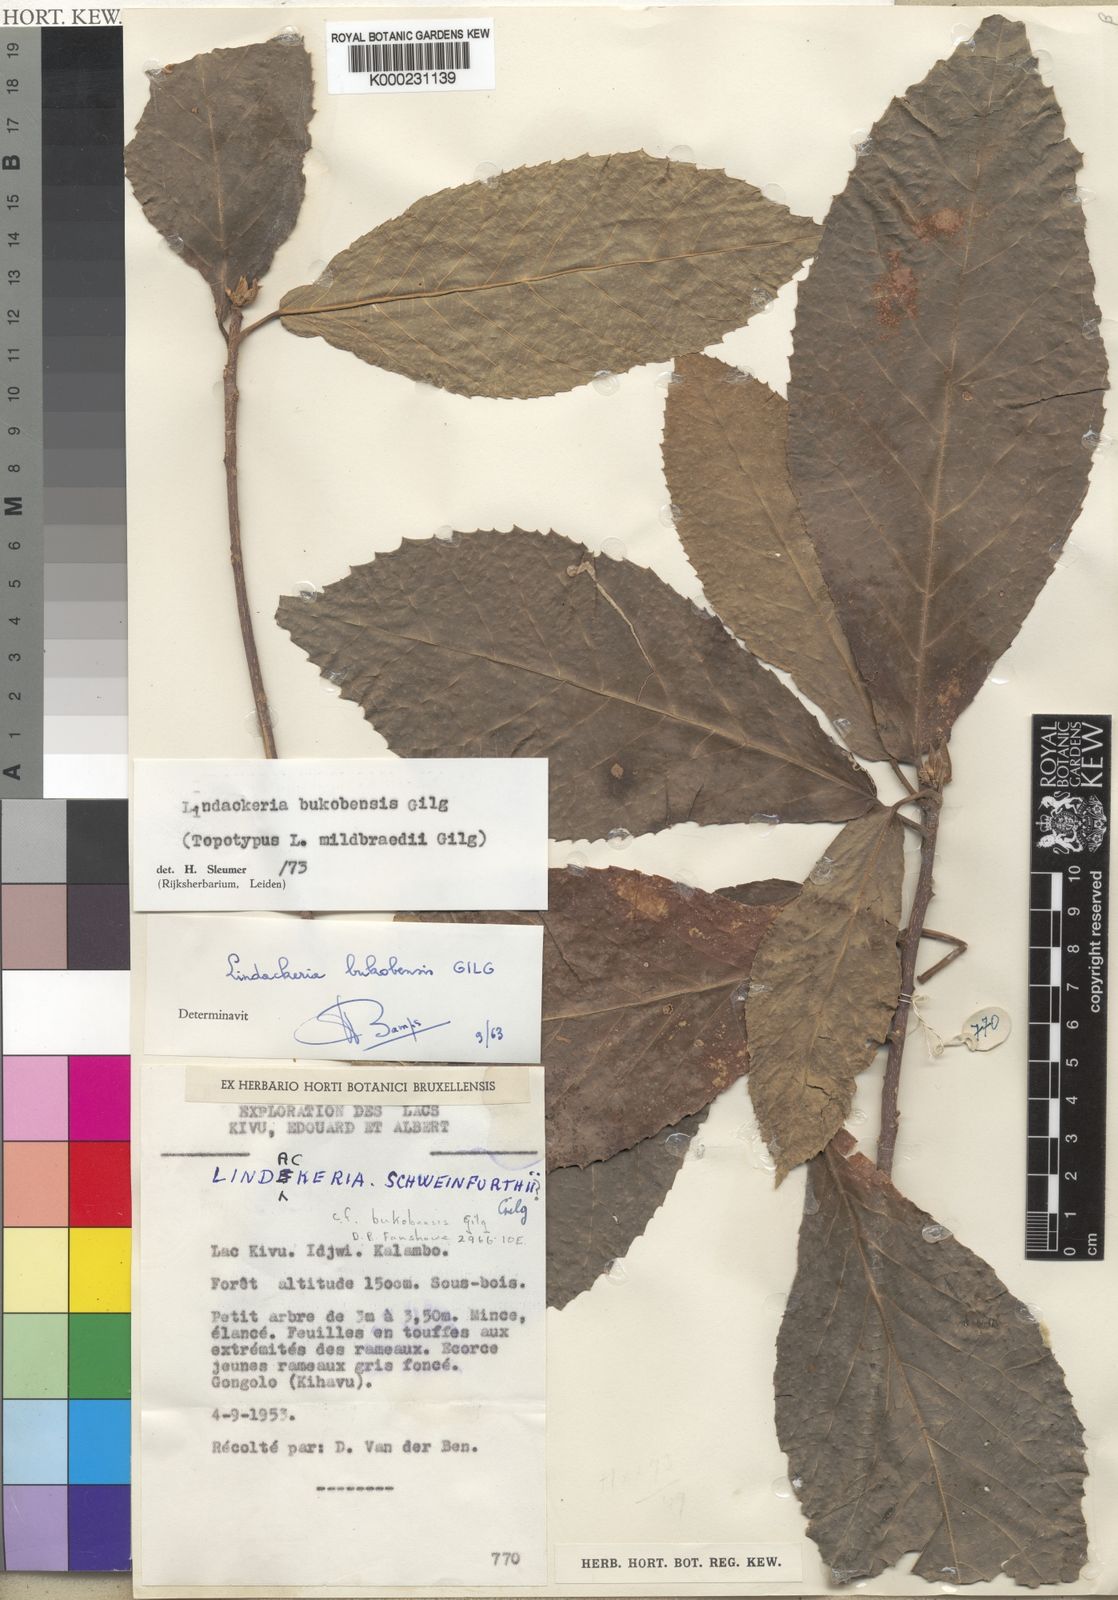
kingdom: Plantae
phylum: Tracheophyta
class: Magnoliopsida
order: Malpighiales
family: Achariaceae
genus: Lindackeria
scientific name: Lindackeria bukobensis
